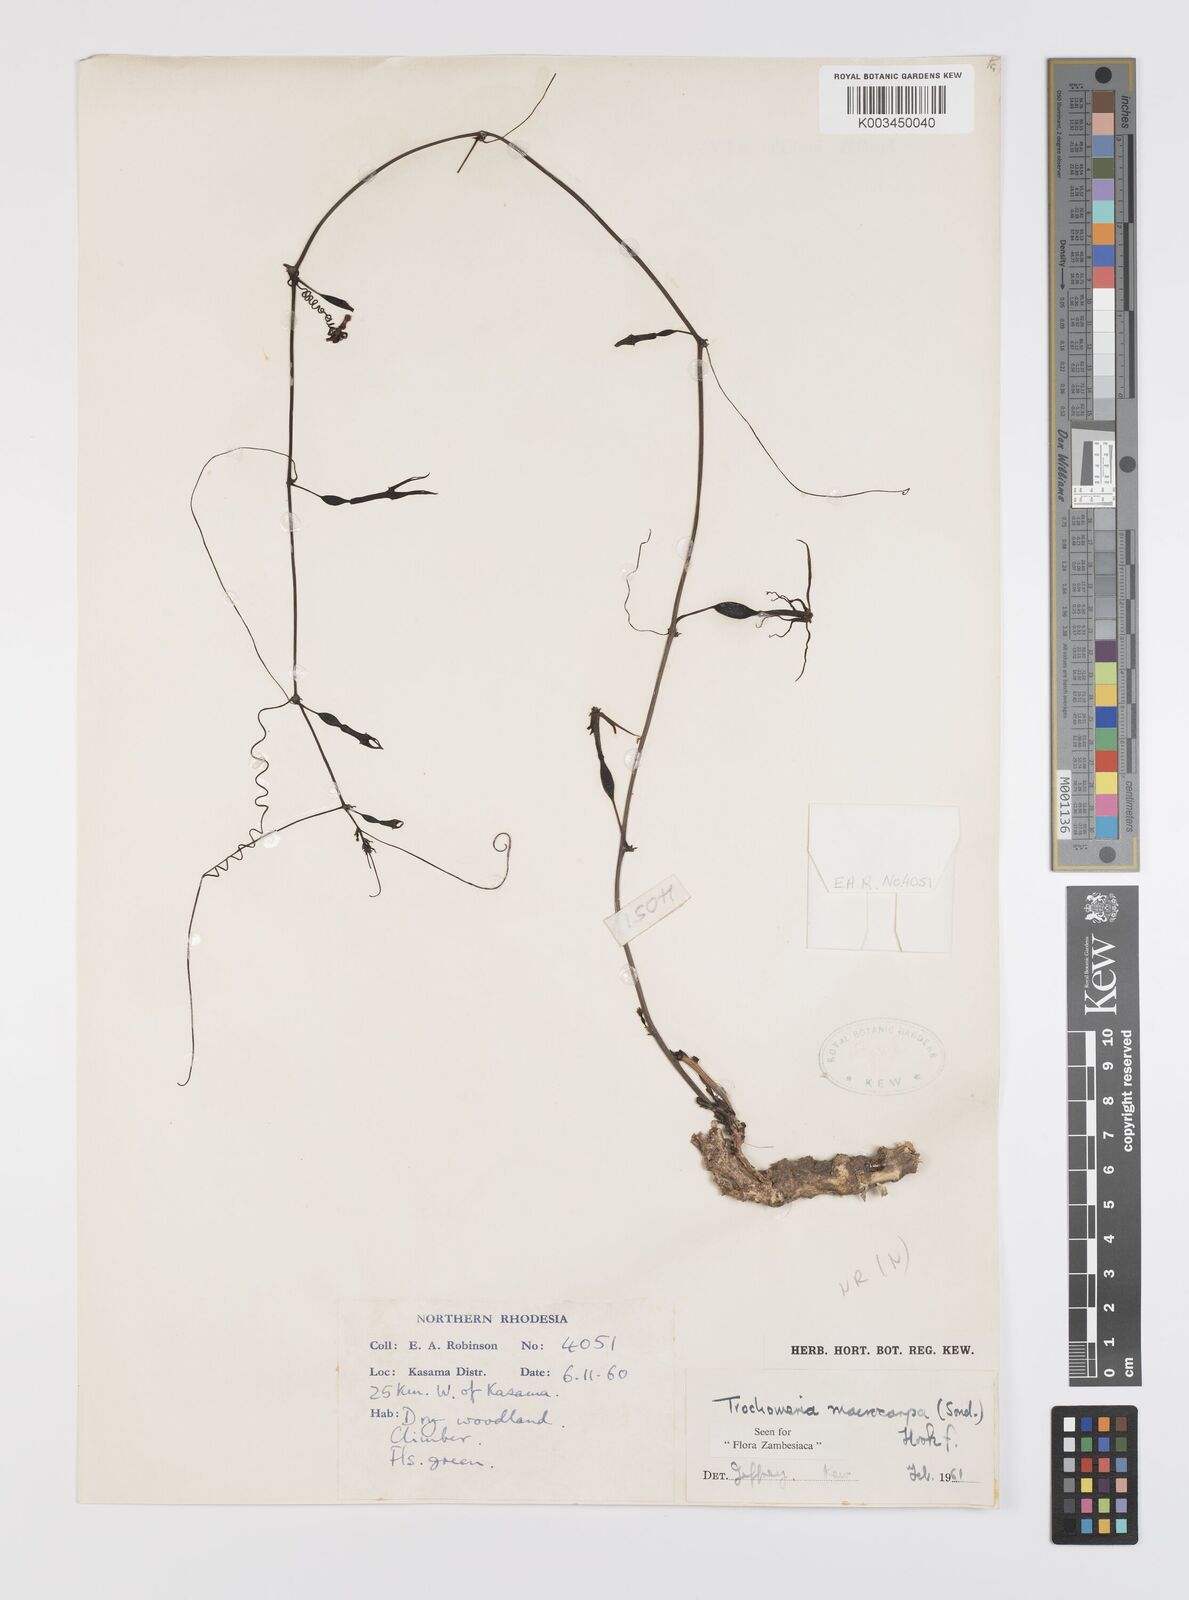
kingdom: Plantae
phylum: Tracheophyta
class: Magnoliopsida
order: Cucurbitales
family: Cucurbitaceae
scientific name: Cucurbitaceae
